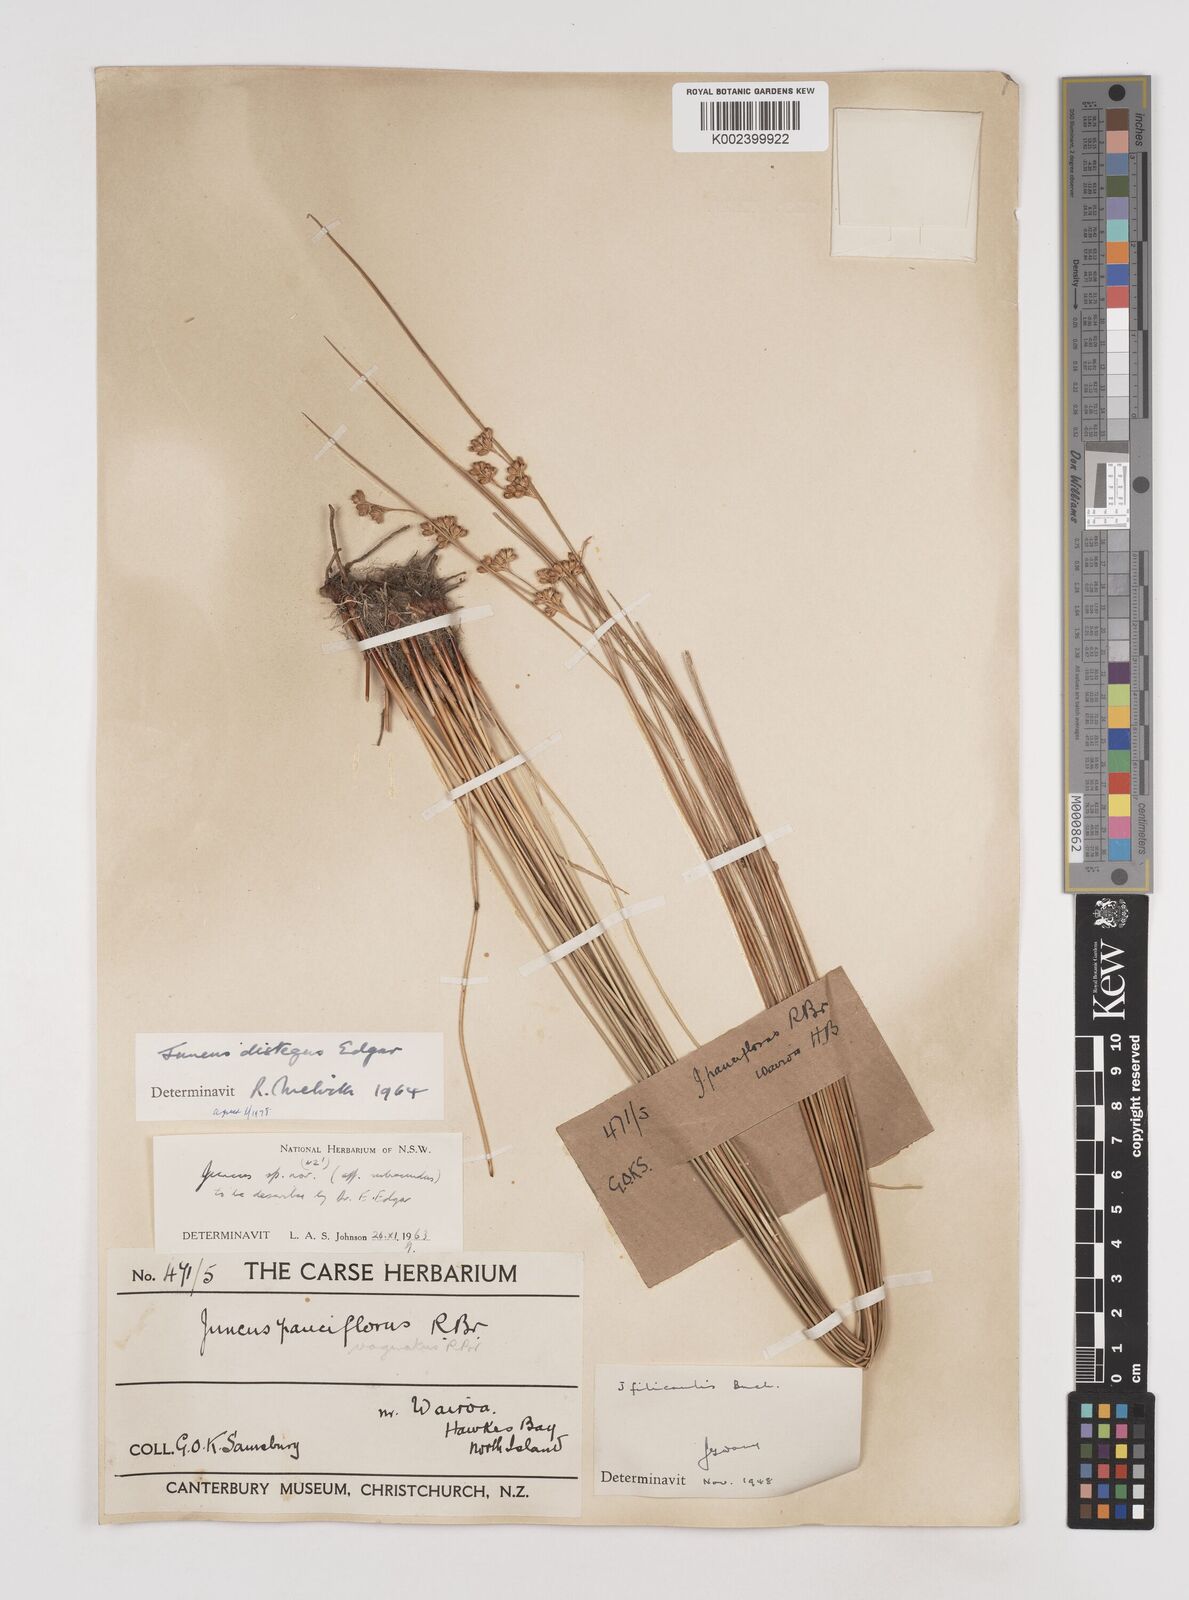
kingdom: Plantae
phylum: Tracheophyta
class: Liliopsida
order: Poales
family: Juncaceae
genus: Juncus
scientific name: Juncus distegus
